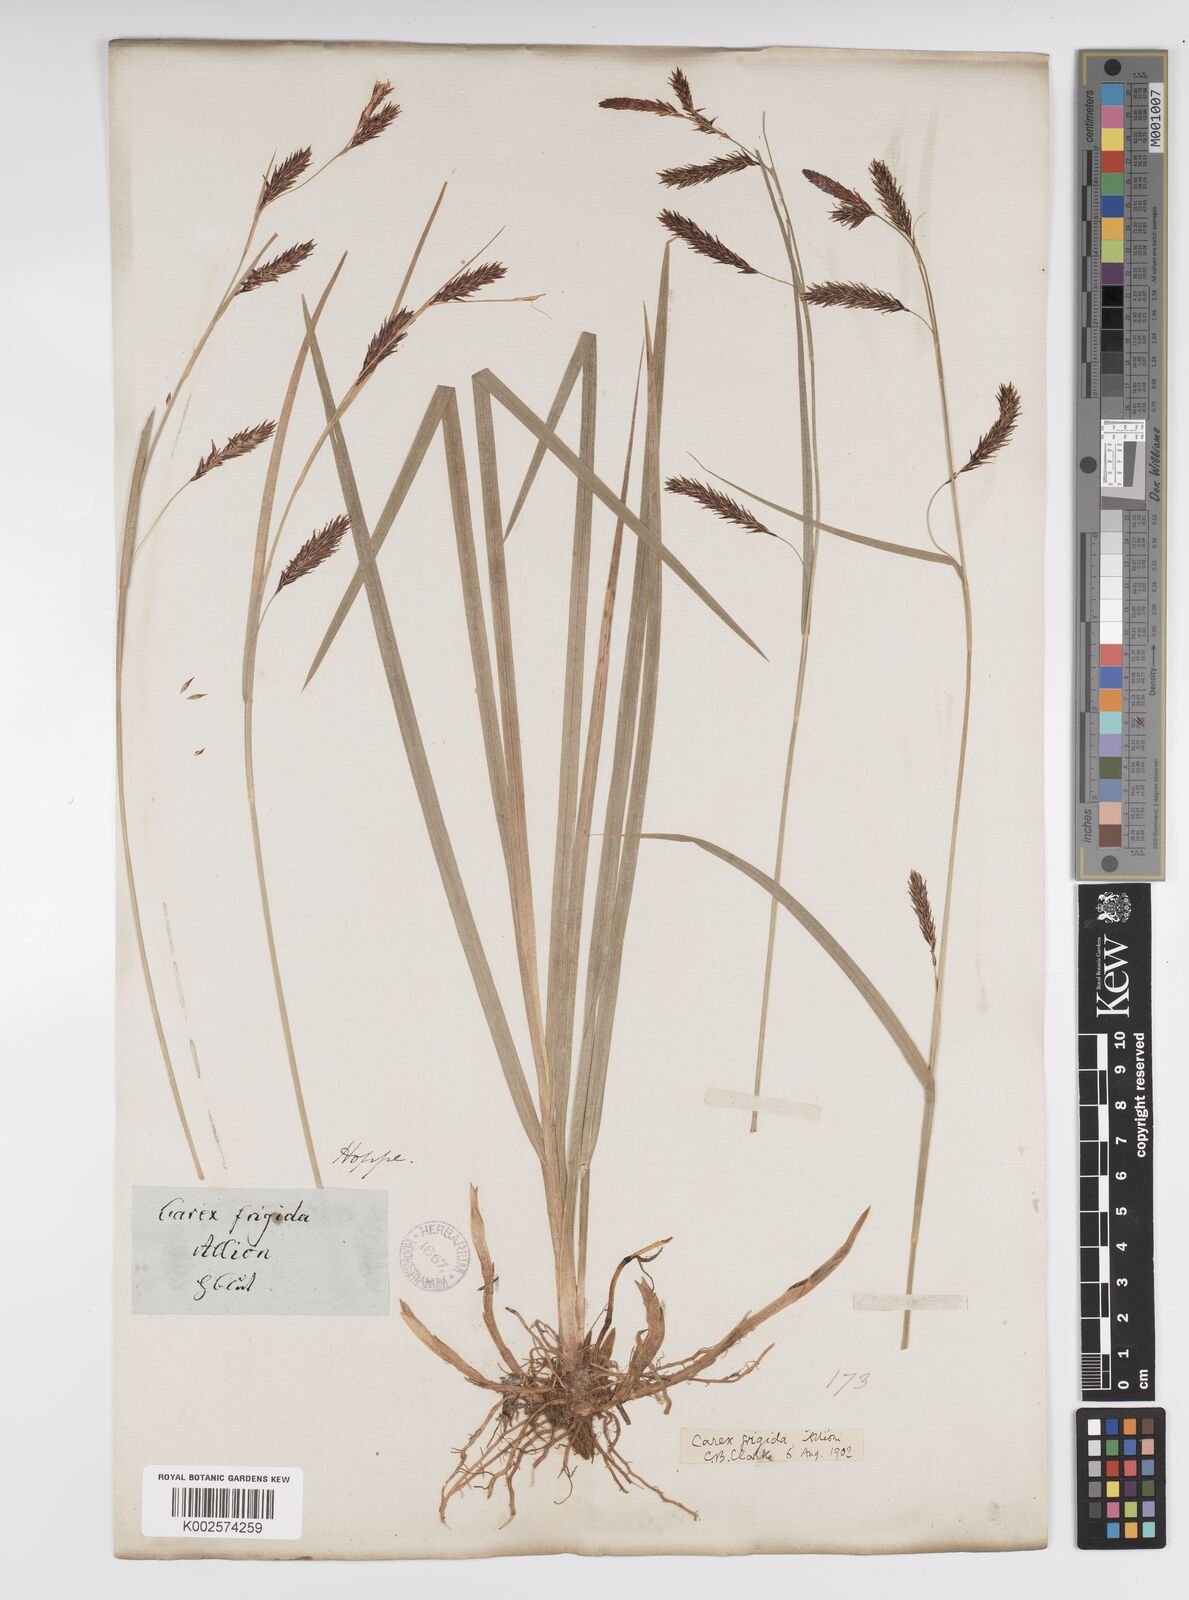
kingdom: Plantae
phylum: Tracheophyta
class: Liliopsida
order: Poales
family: Cyperaceae
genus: Carex
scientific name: Carex frigida
